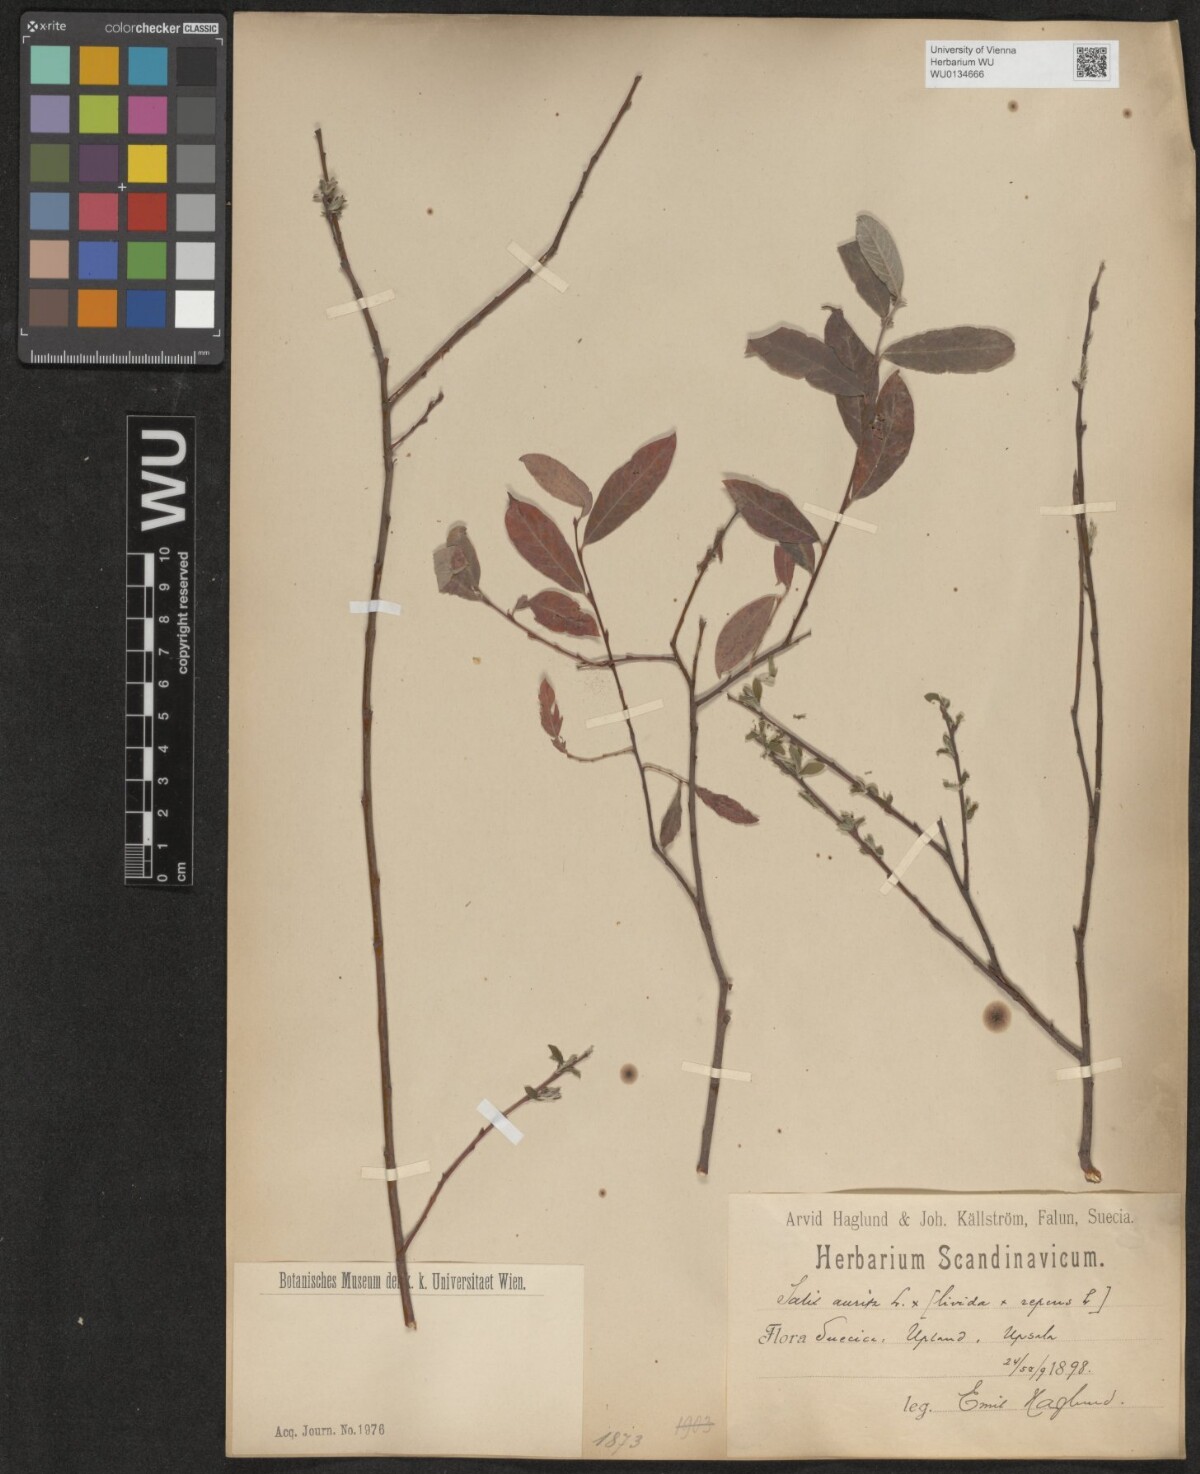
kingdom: Plantae
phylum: Tracheophyta
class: Magnoliopsida
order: Malpighiales
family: Salicaceae
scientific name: Salicaceae
